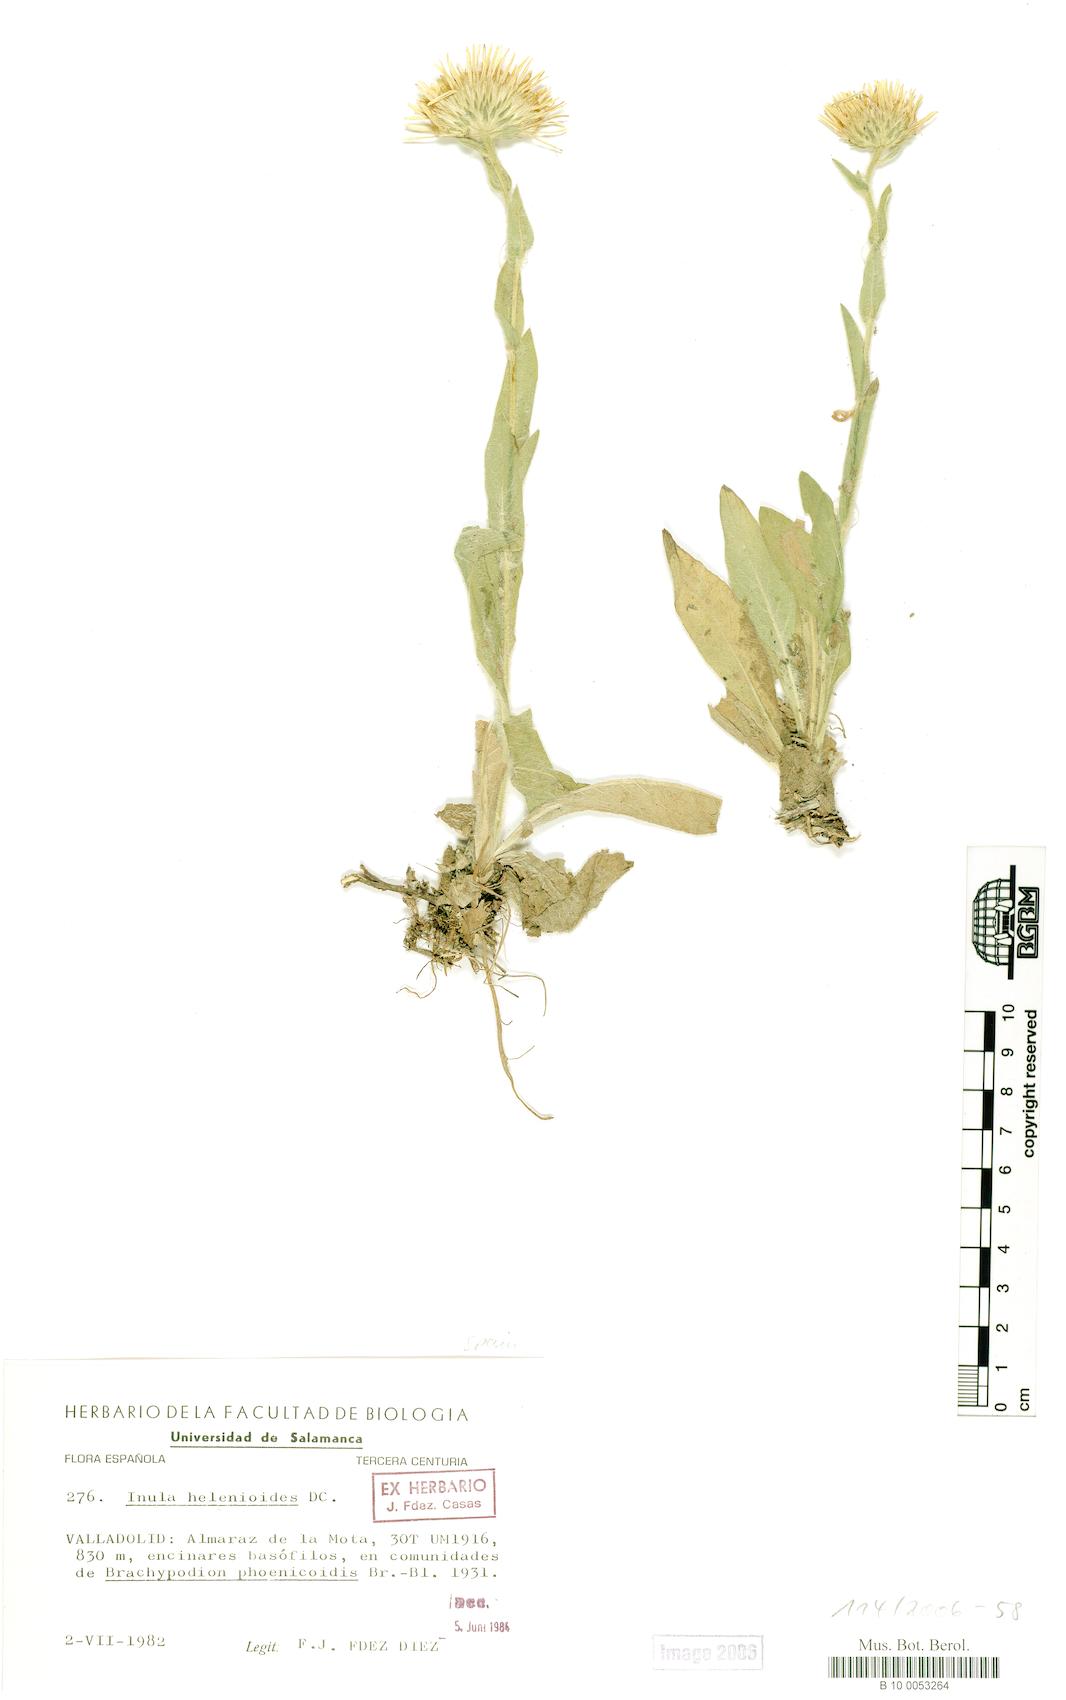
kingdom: Plantae
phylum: Tracheophyta
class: Magnoliopsida
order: Asterales
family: Asteraceae
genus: Pentanema
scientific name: Pentanema helenioides
